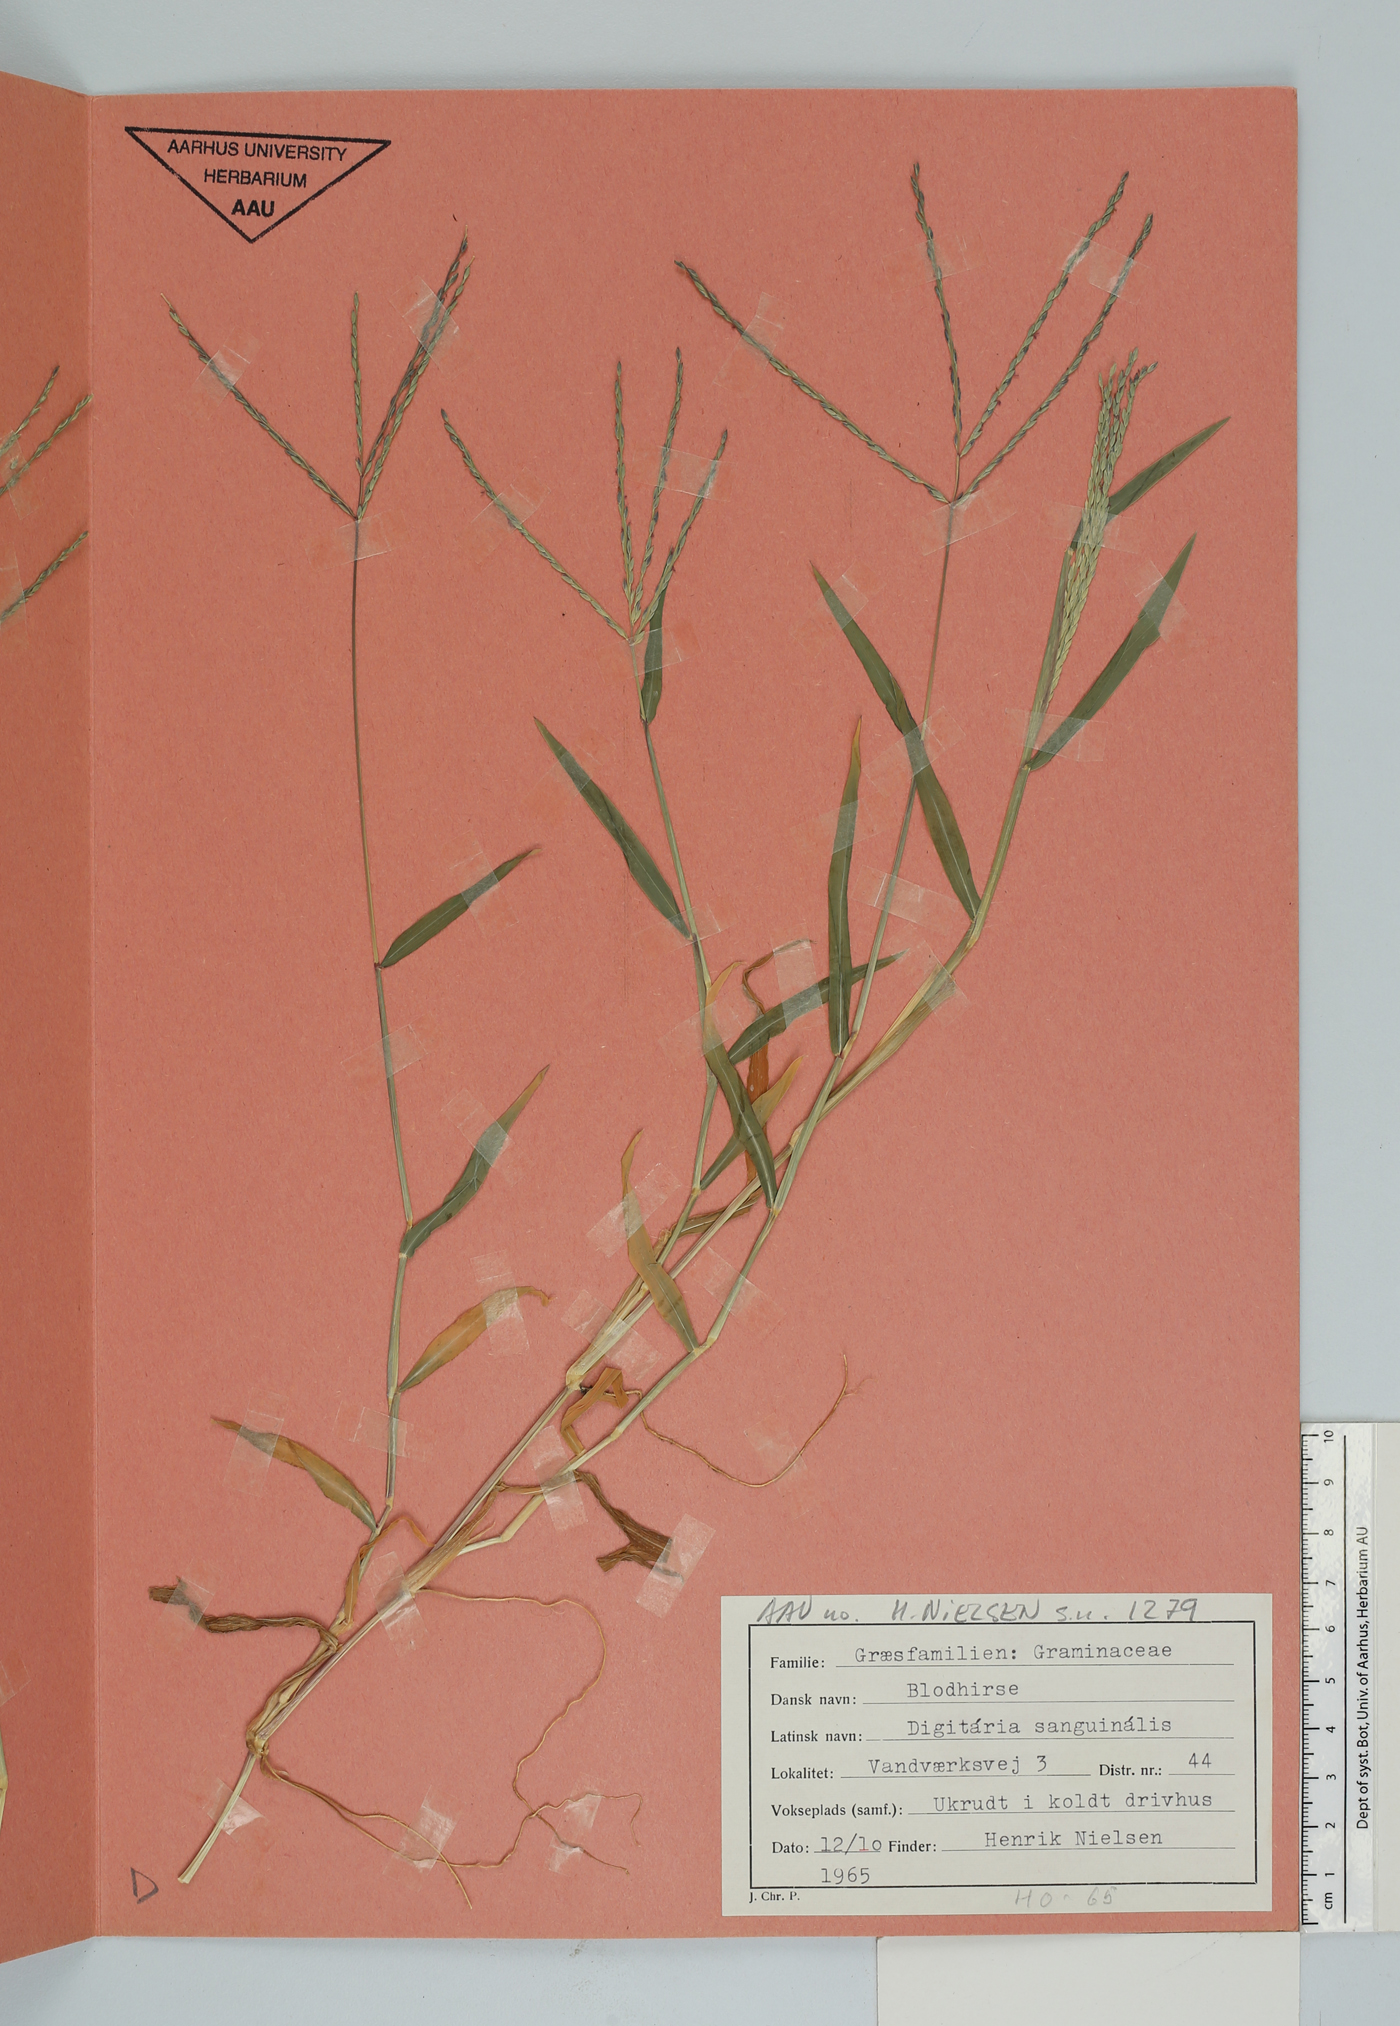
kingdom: Plantae
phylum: Tracheophyta
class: Liliopsida
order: Poales
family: Poaceae
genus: Digitaria
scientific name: Digitaria sanguinalis
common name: Hairy crabgrass
